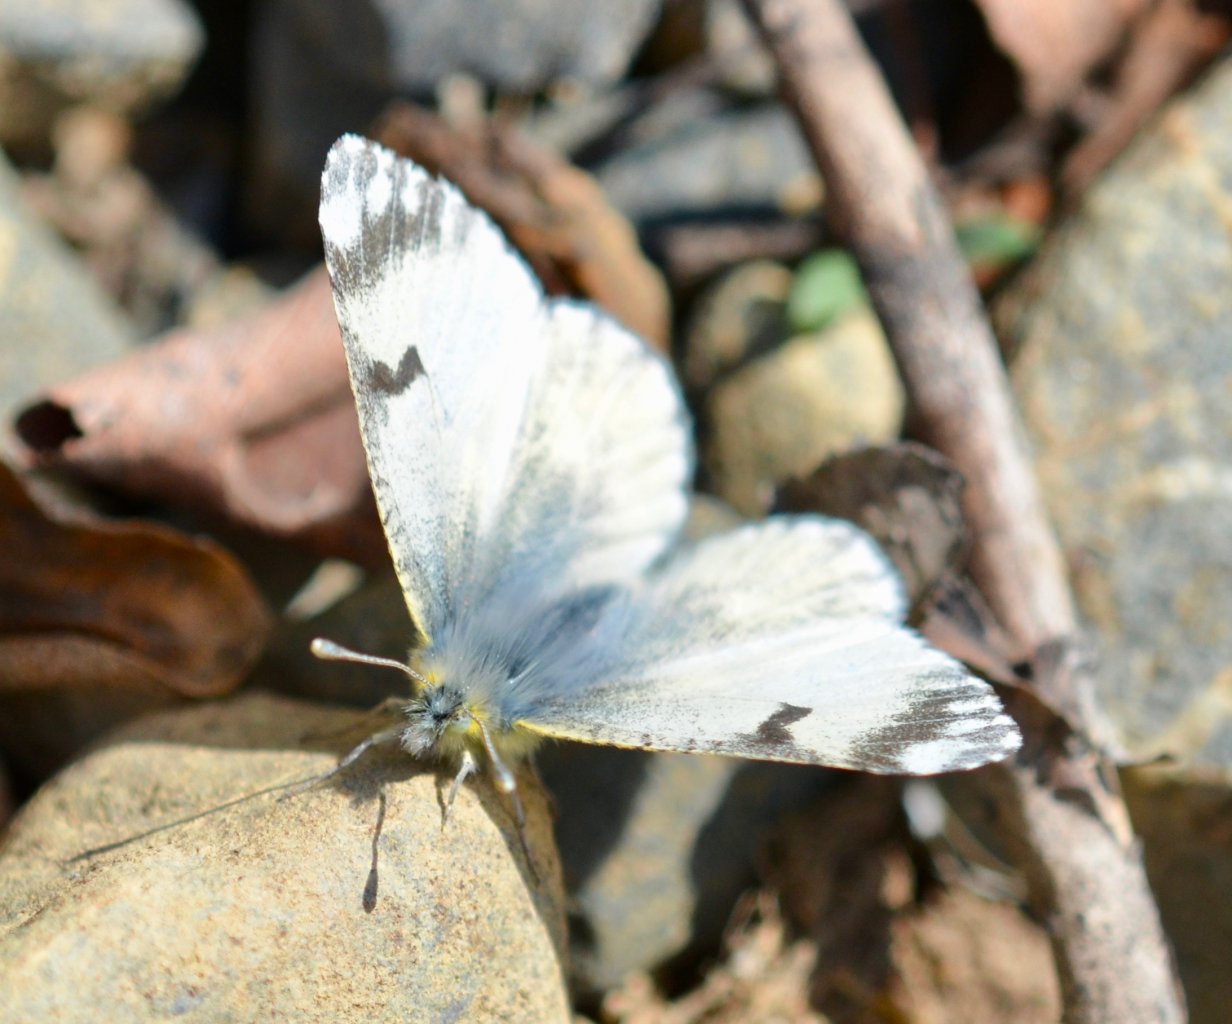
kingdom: Animalia
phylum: Arthropoda
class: Insecta
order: Lepidoptera
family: Pieridae
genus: Euchloe
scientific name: Euchloe ausonides
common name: Large Marble
